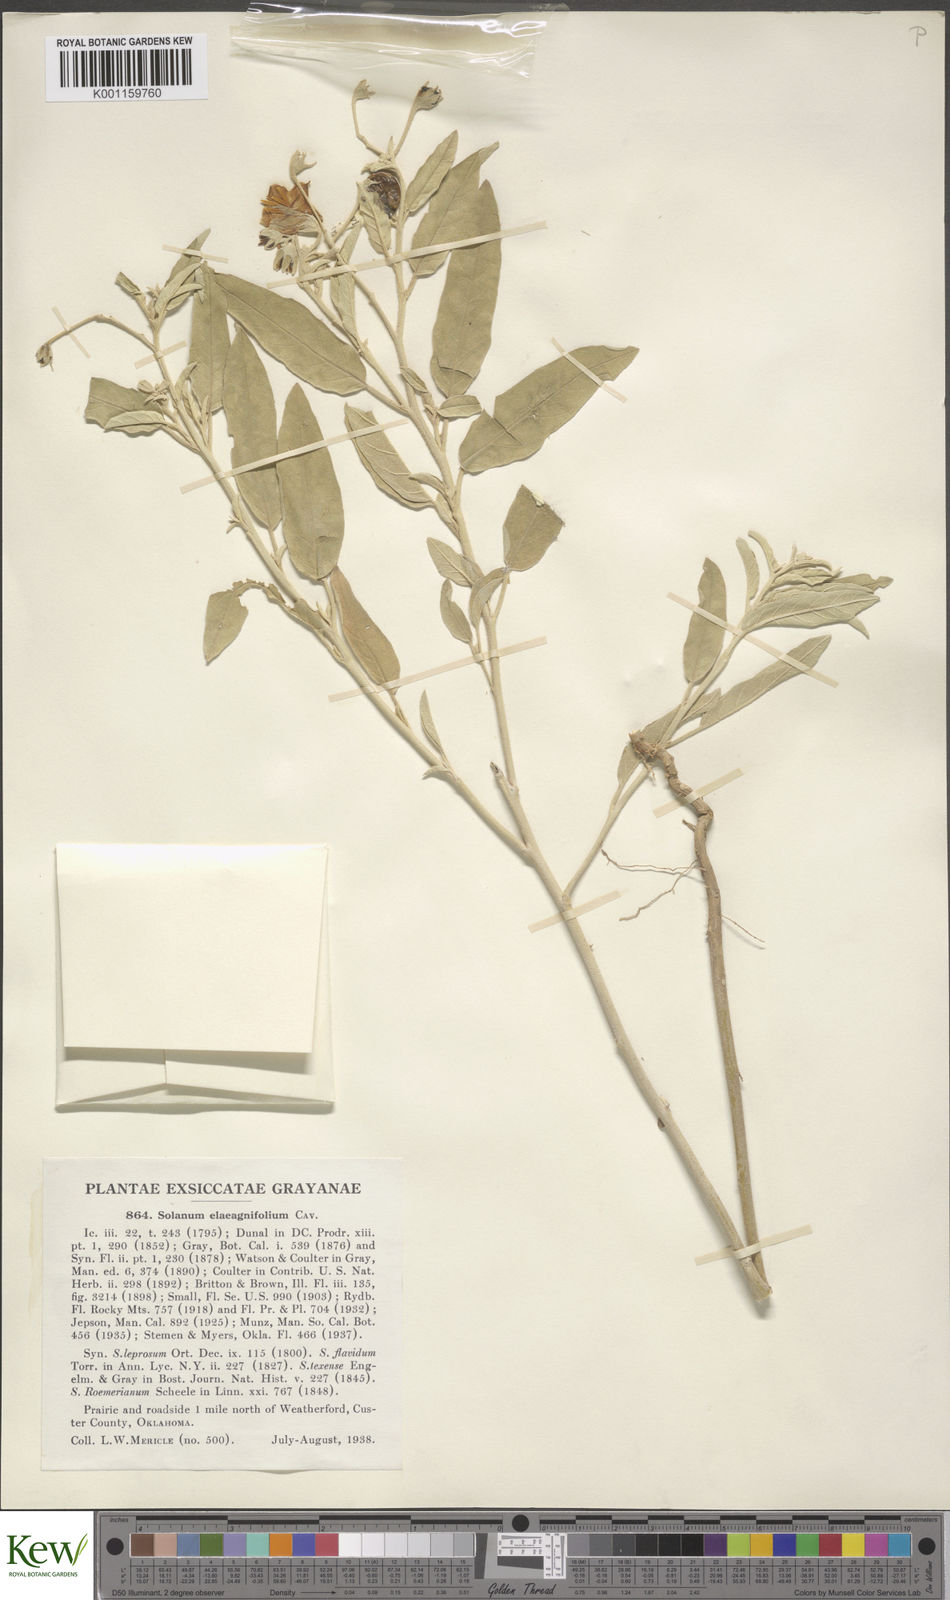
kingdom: Plantae
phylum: Tracheophyta
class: Magnoliopsida
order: Solanales
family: Solanaceae
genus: Solanum
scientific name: Solanum
